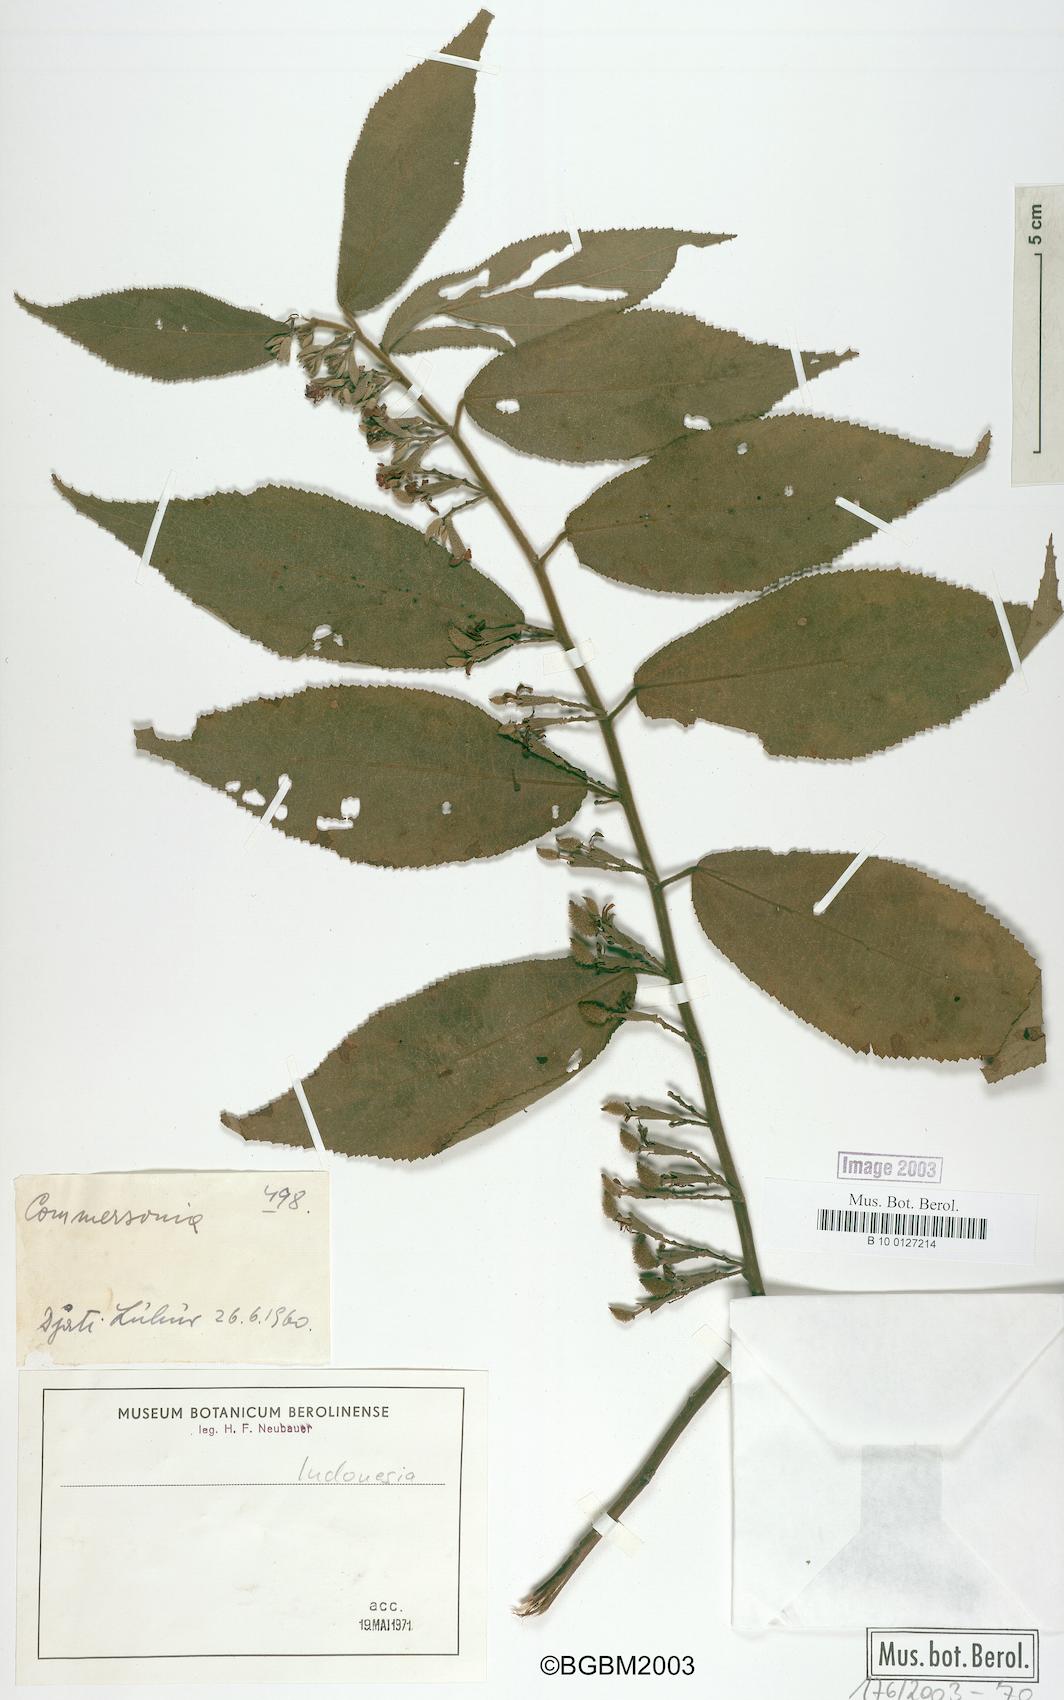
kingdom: Plantae
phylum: Tracheophyta
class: Magnoliopsida
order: Malvales
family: Malvaceae
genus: Commersonia
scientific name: Commersonia
